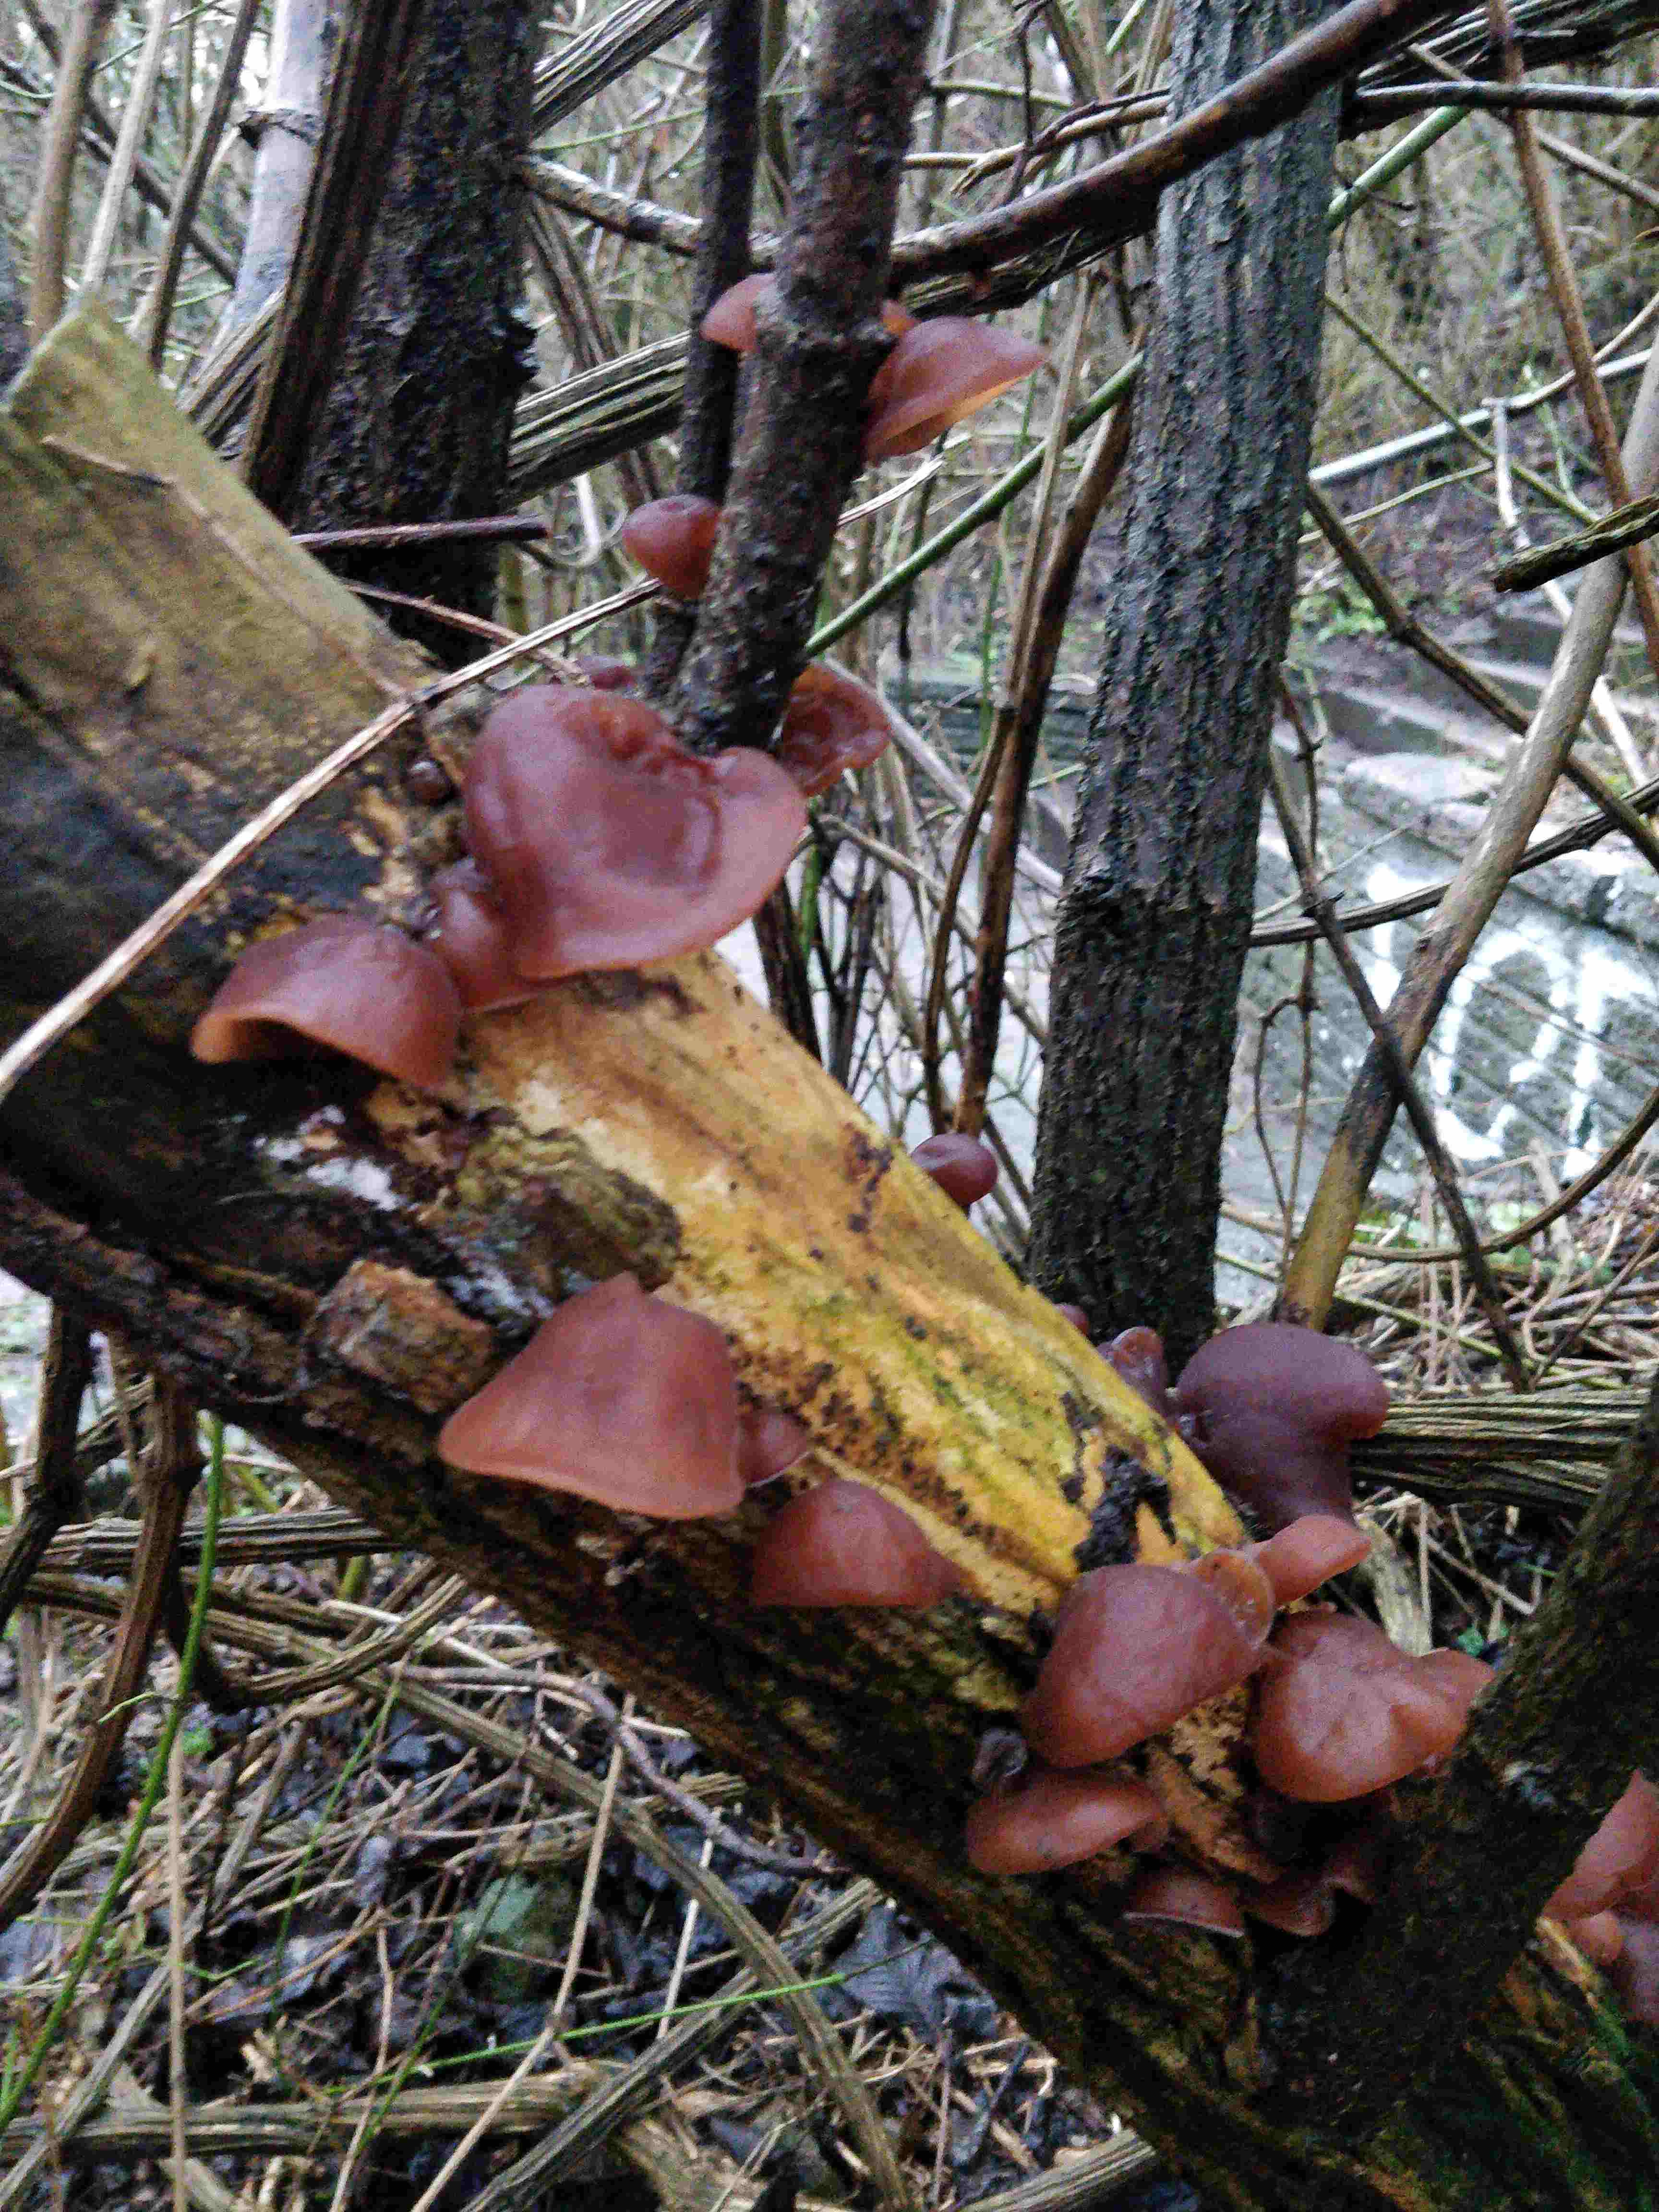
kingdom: Fungi
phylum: Basidiomycota
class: Agaricomycetes
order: Auriculariales
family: Auriculariaceae
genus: Auricularia
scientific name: Auricularia auricula-judae
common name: almindelig judasøre
